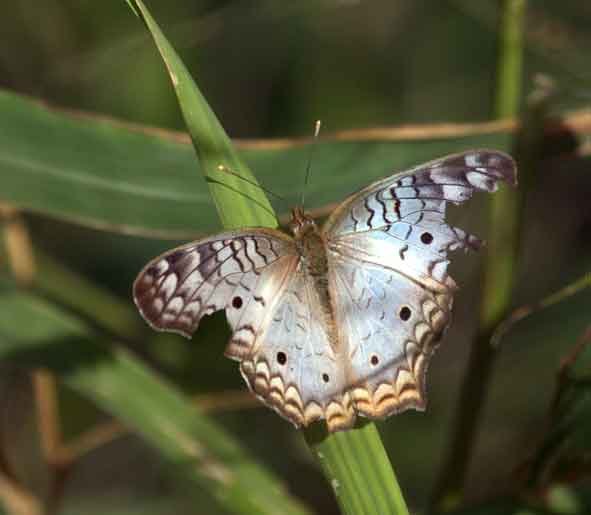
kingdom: Animalia
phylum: Arthropoda
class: Insecta
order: Lepidoptera
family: Nymphalidae
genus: Anartia
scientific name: Anartia jatrophae
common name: White Peacock
